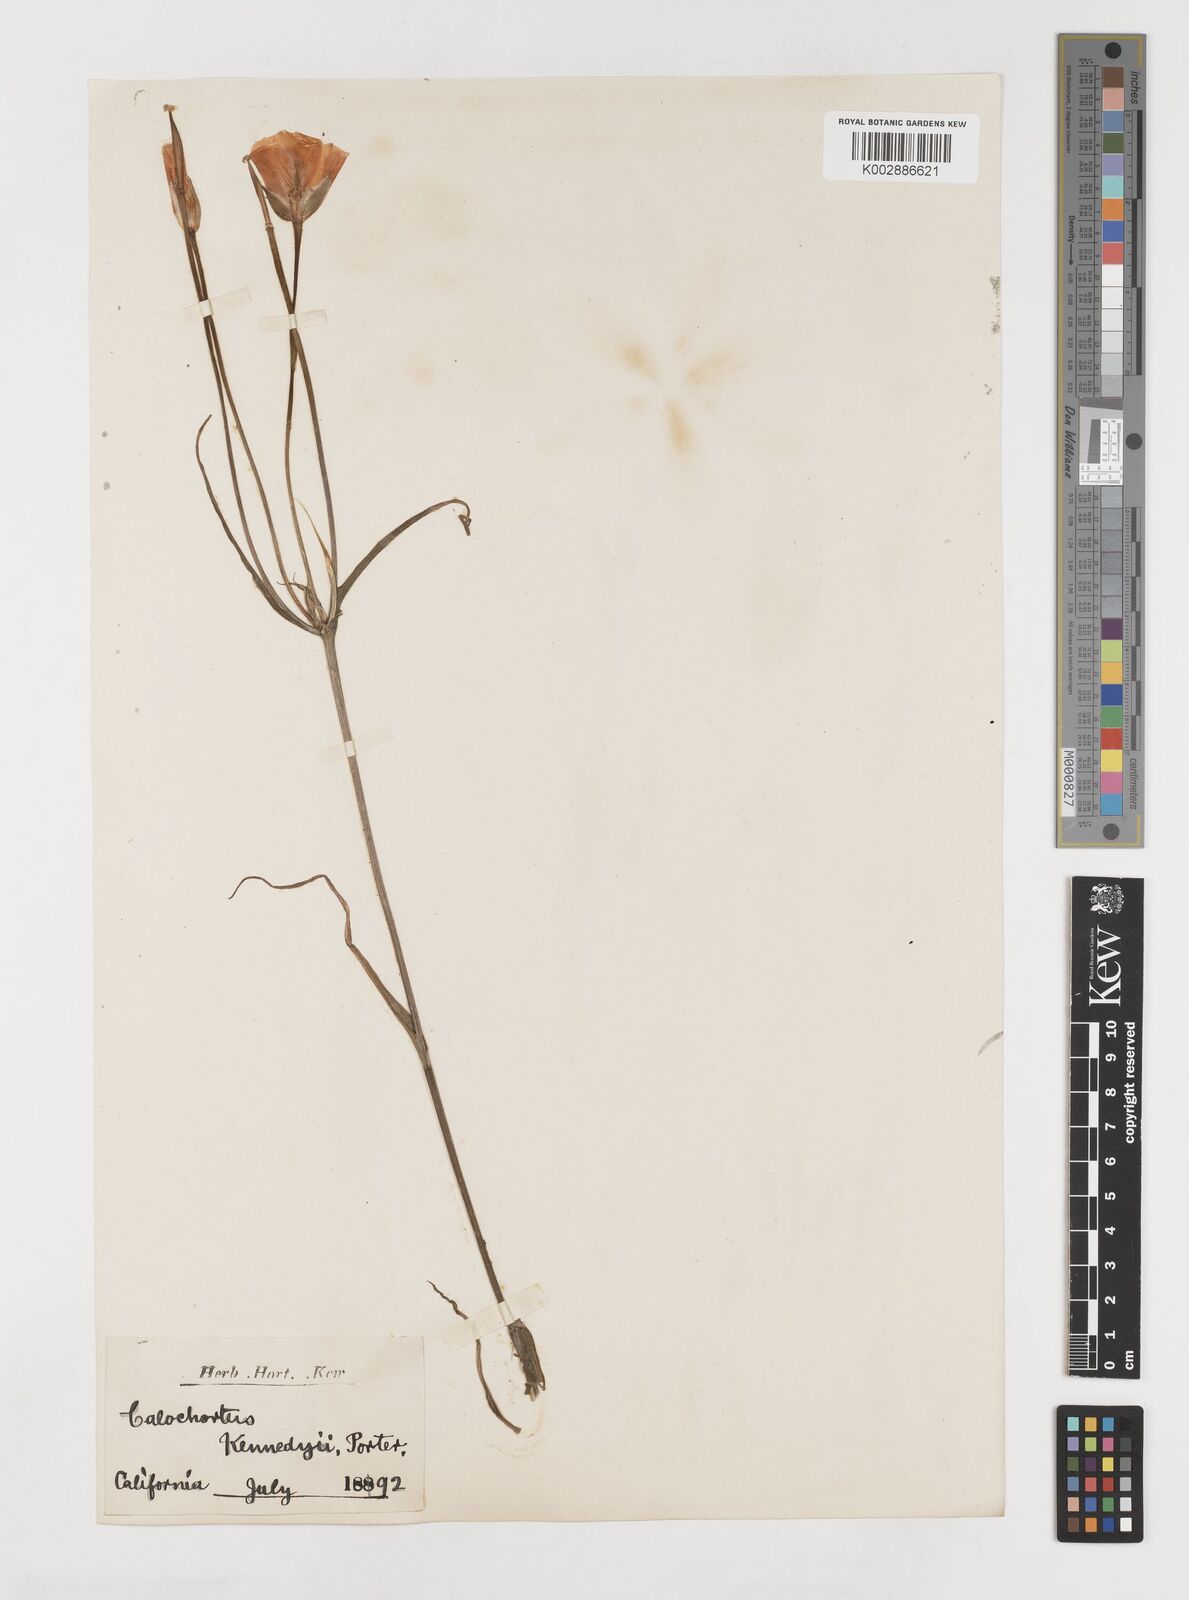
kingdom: Plantae
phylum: Tracheophyta
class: Liliopsida
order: Liliales
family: Liliaceae
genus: Calochortus
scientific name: Calochortus kennedyi
